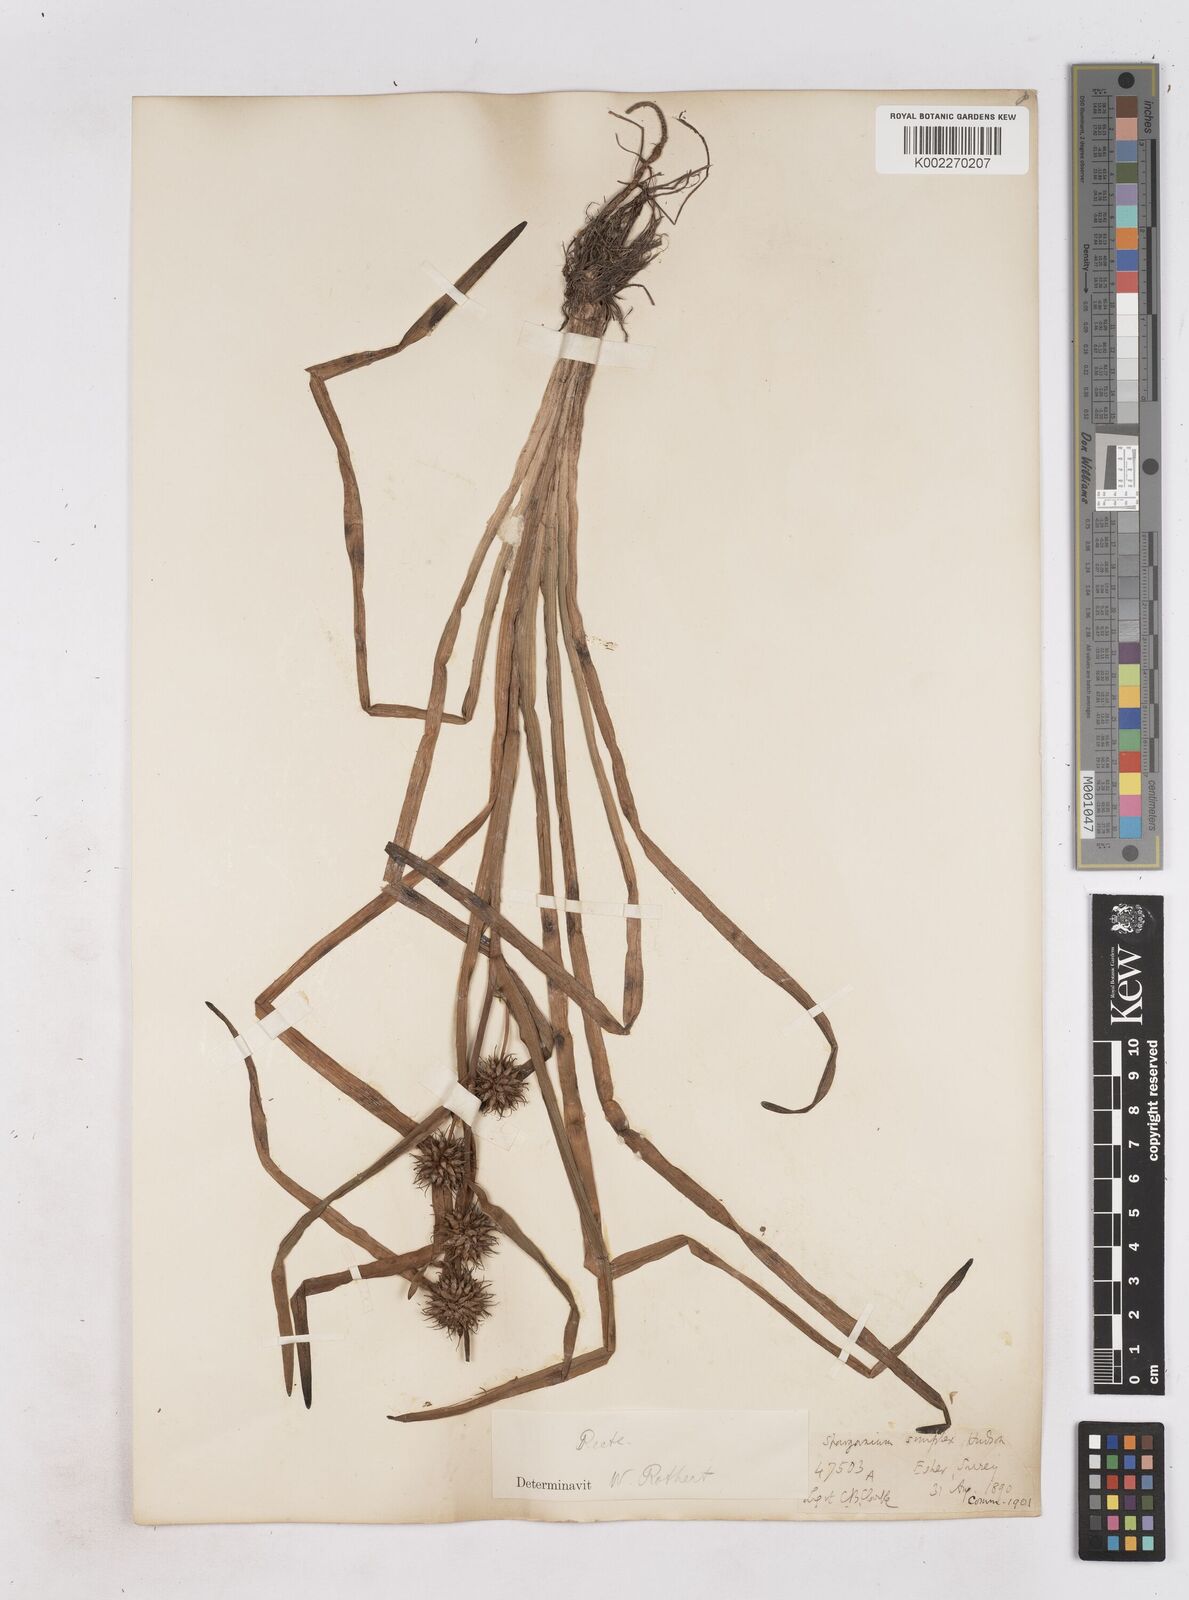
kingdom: Plantae
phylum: Tracheophyta
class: Liliopsida
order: Poales
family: Typhaceae
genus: Sparganium
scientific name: Sparganium emersum
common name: Unbranched bur-reed
